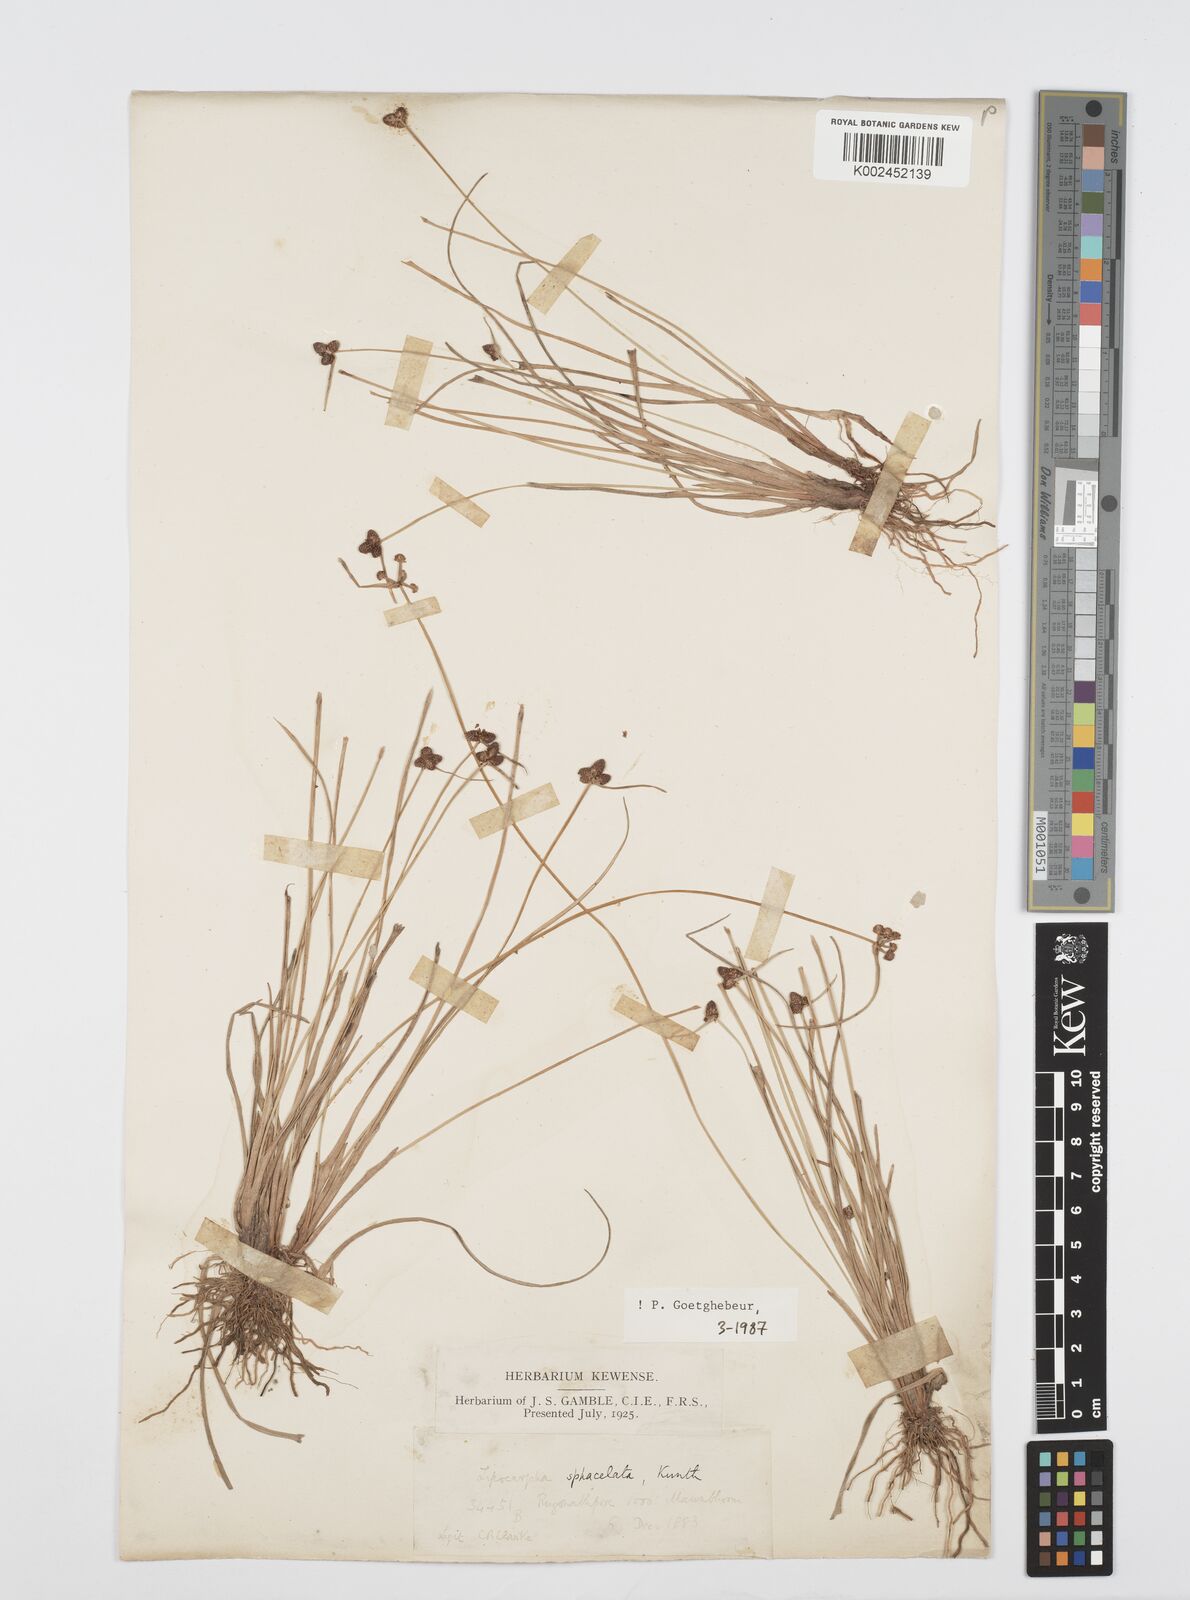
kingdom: Plantae
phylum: Tracheophyta
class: Liliopsida
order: Poales
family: Cyperaceae
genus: Cyperus
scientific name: Cyperus sphacelatus
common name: Roadside flatsedge
